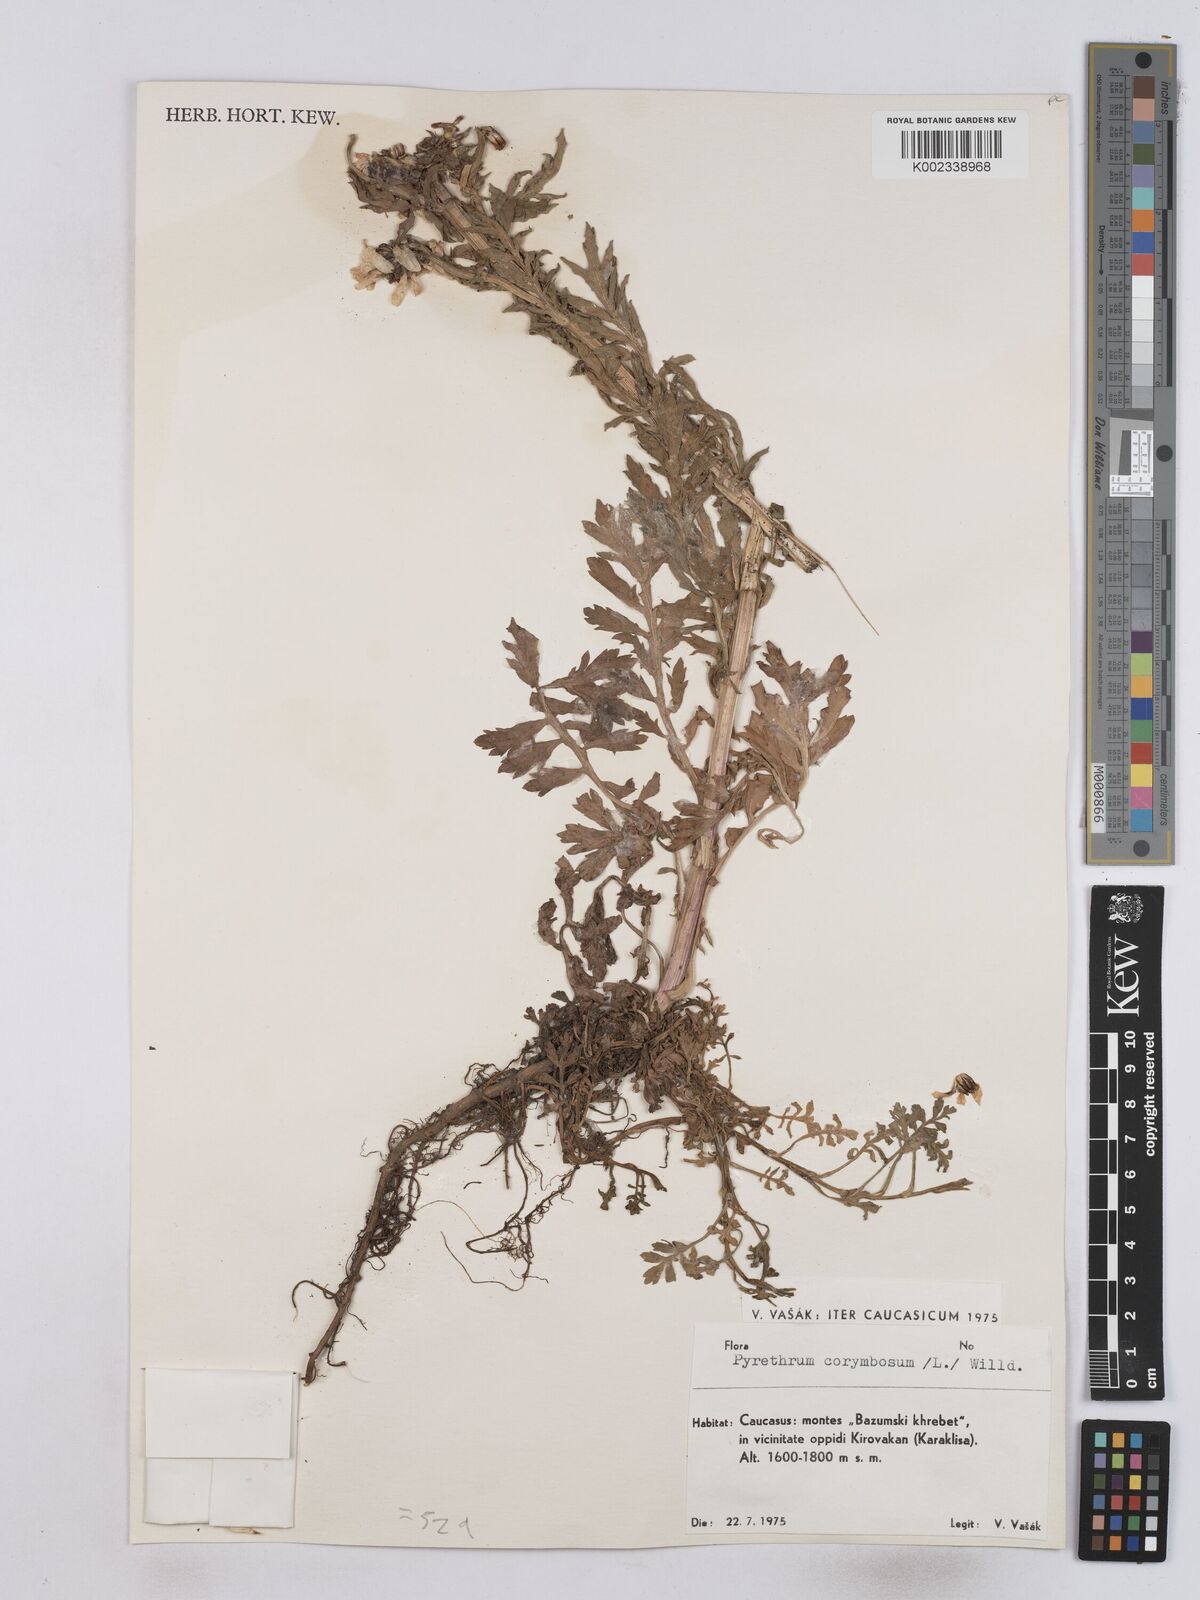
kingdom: Plantae
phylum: Tracheophyta
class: Magnoliopsida
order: Asterales
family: Asteraceae
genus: Tanacetum
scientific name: Tanacetum corymbosum
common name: Scentless feverfew
